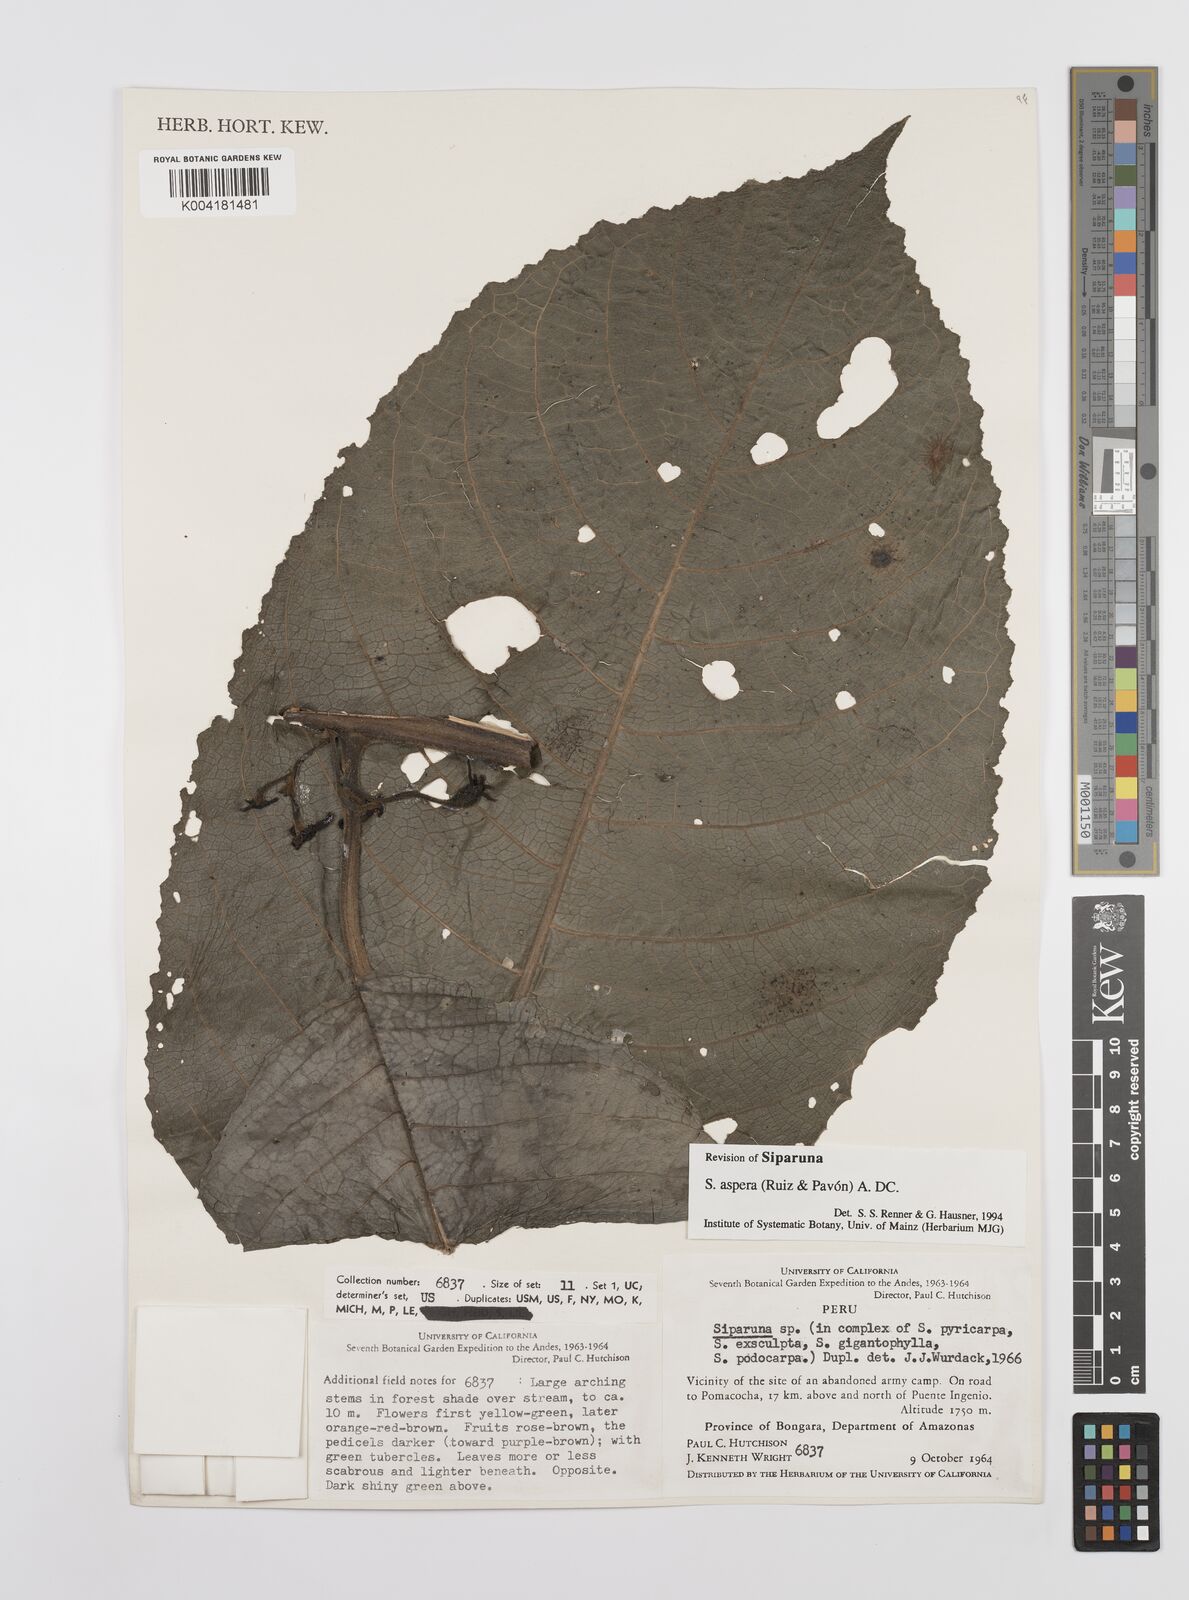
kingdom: Plantae
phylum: Tracheophyta
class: Magnoliopsida
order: Laurales
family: Siparunaceae
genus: Siparuna
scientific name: Siparuna aspera
